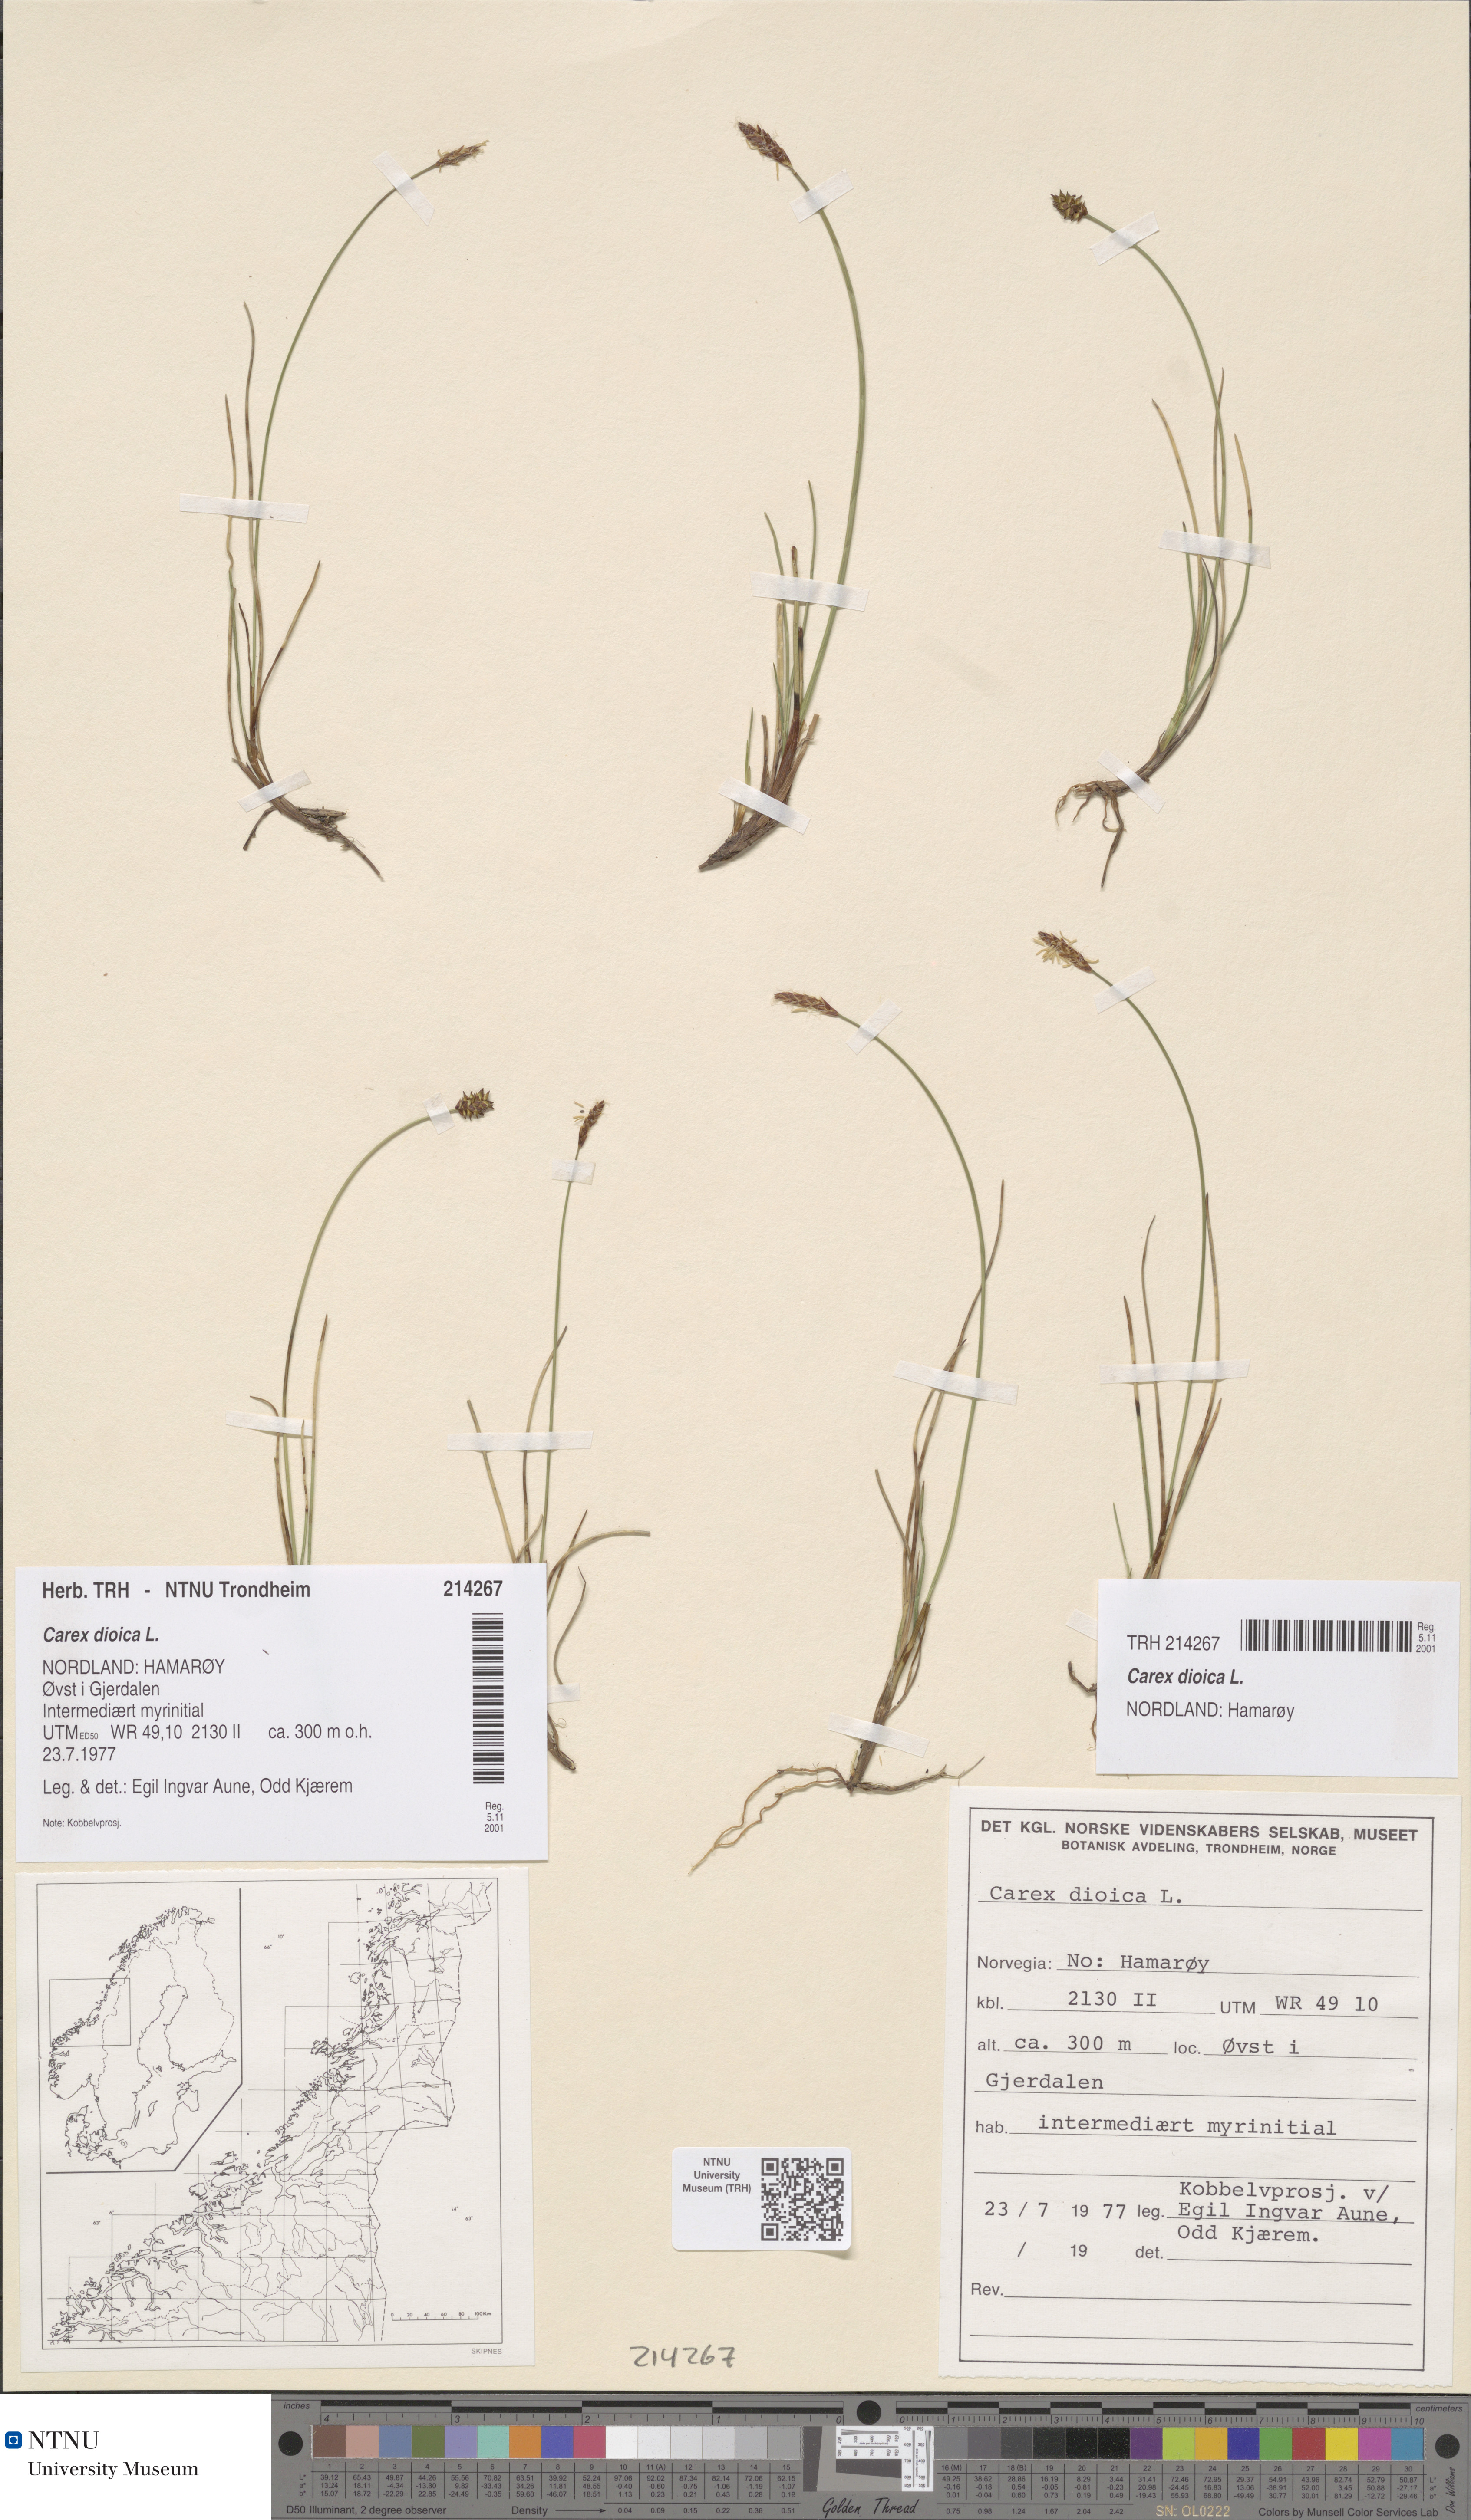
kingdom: Plantae
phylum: Tracheophyta
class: Liliopsida
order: Poales
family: Cyperaceae
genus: Carex
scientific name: Carex dioica
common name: Dioecious sedge
